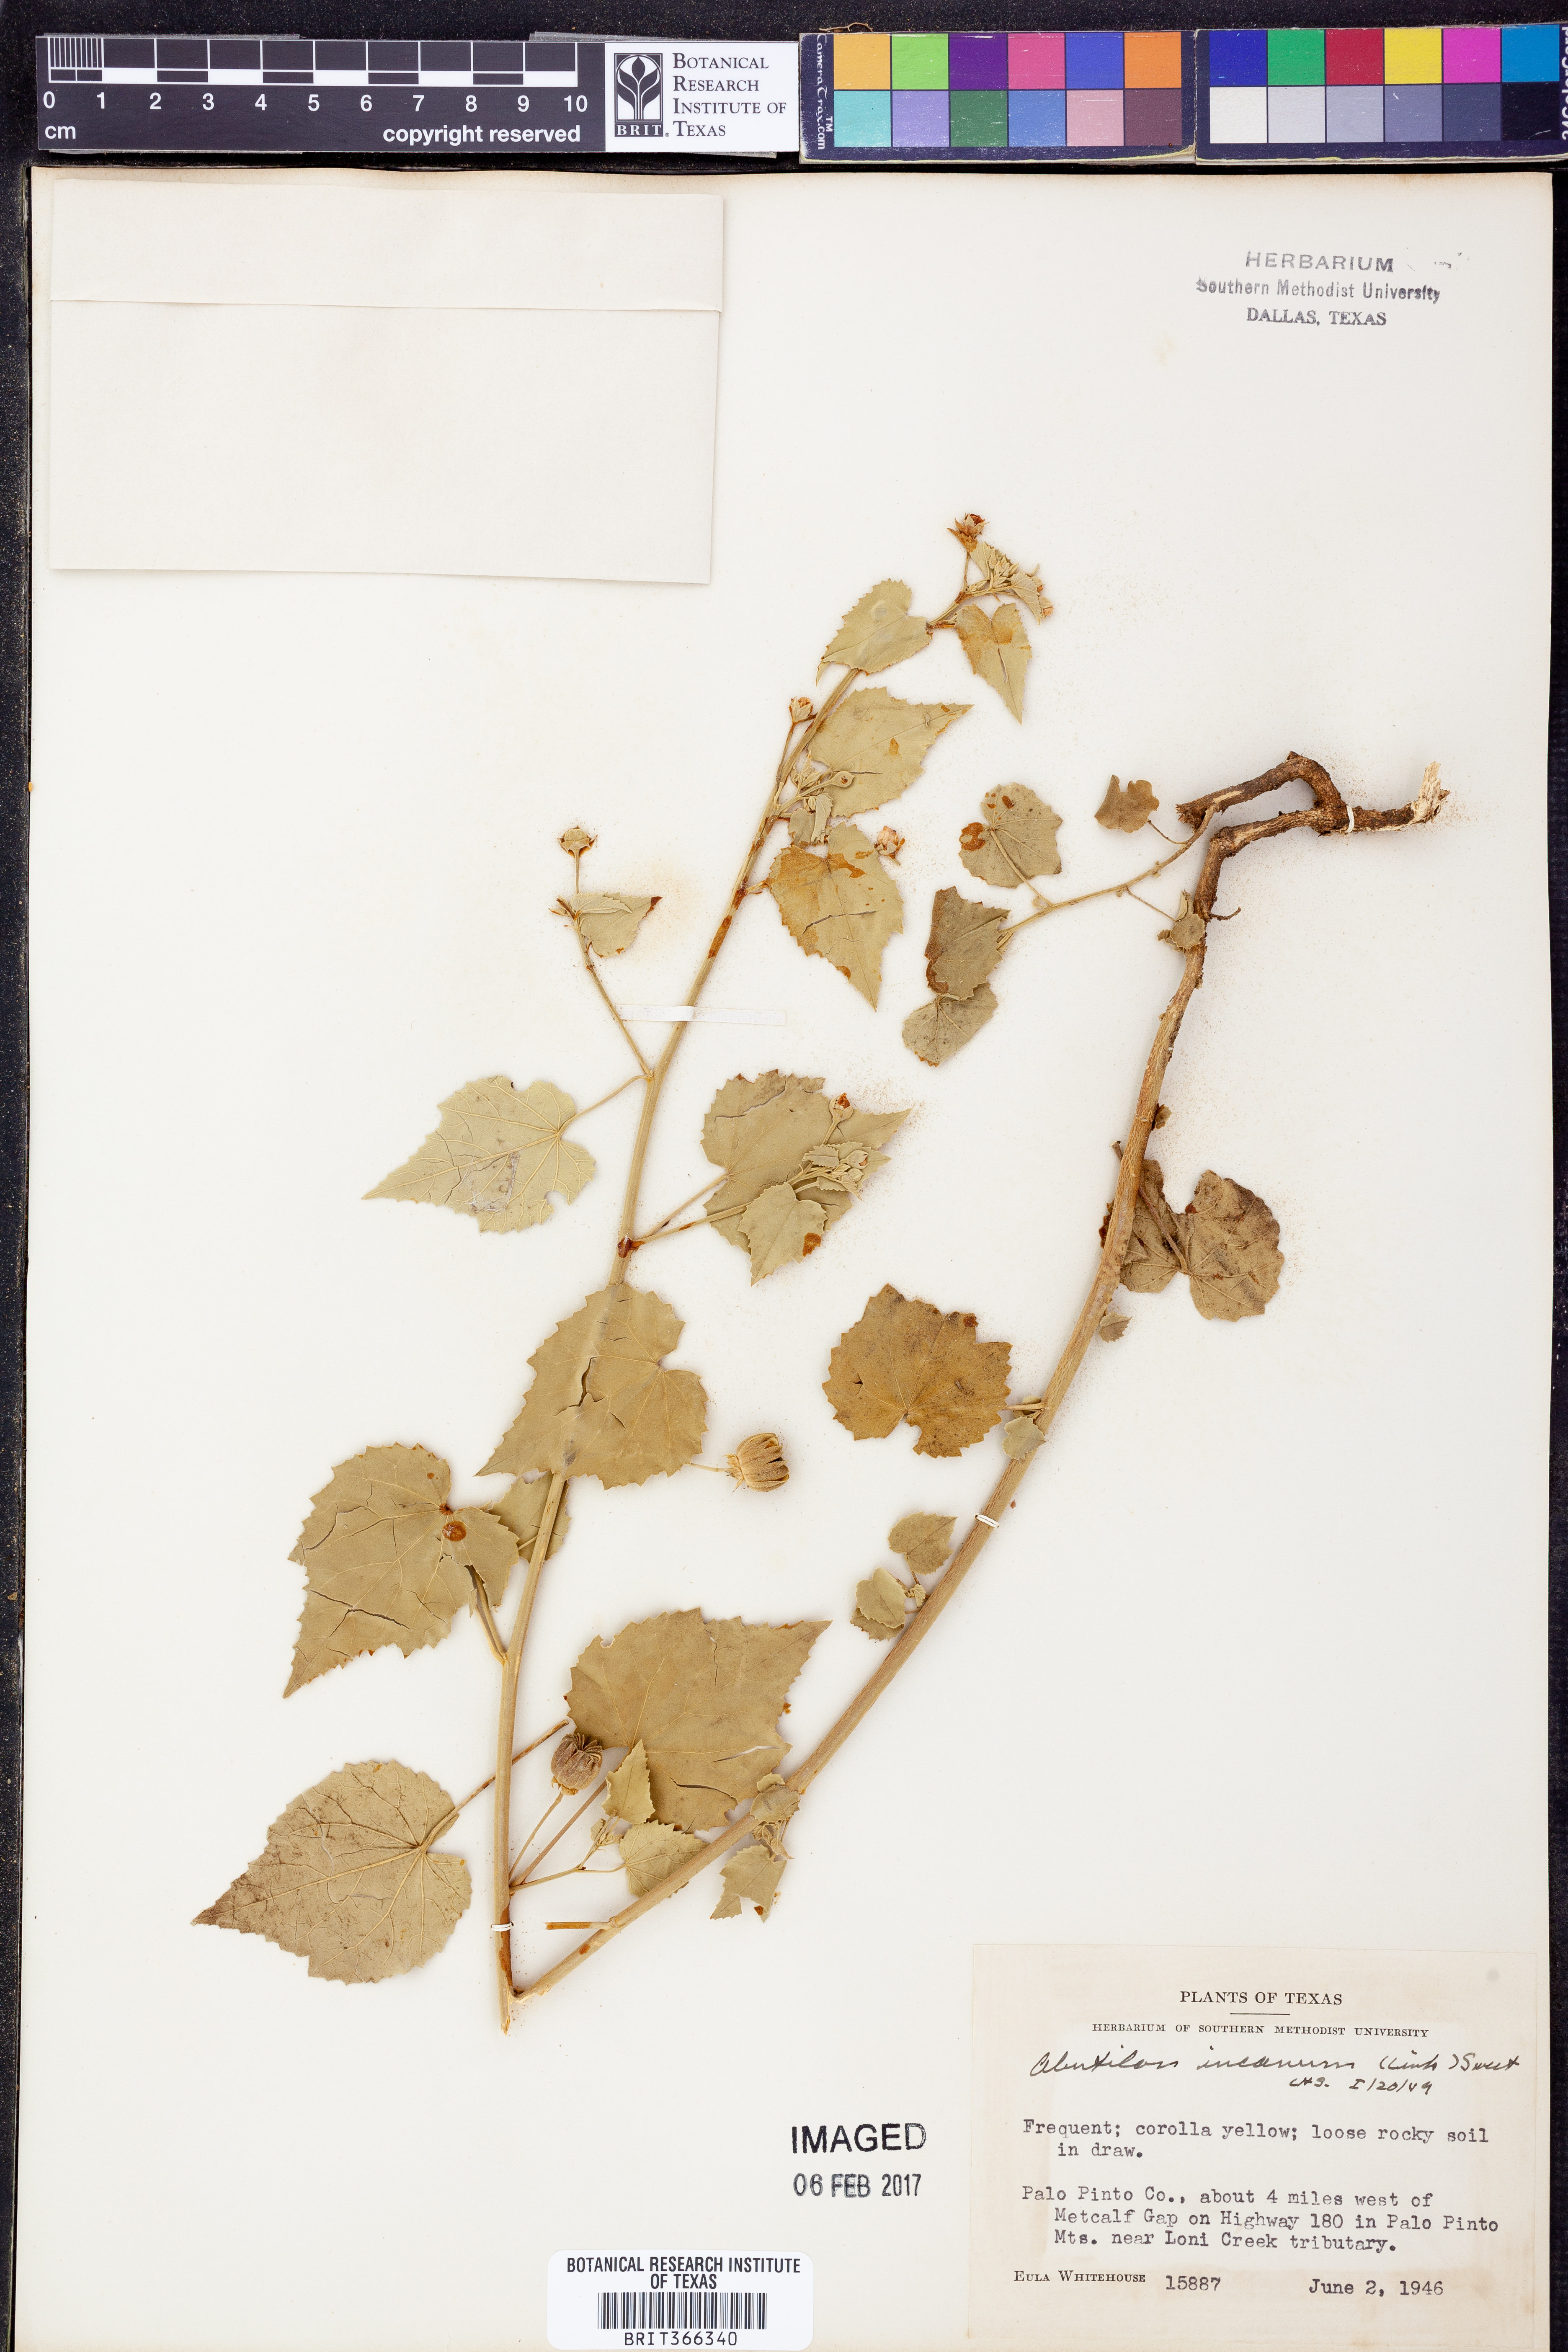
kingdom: Plantae
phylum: Tracheophyta
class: Magnoliopsida
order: Malvales
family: Malvaceae
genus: Abutilon
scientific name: Abutilon incanum
